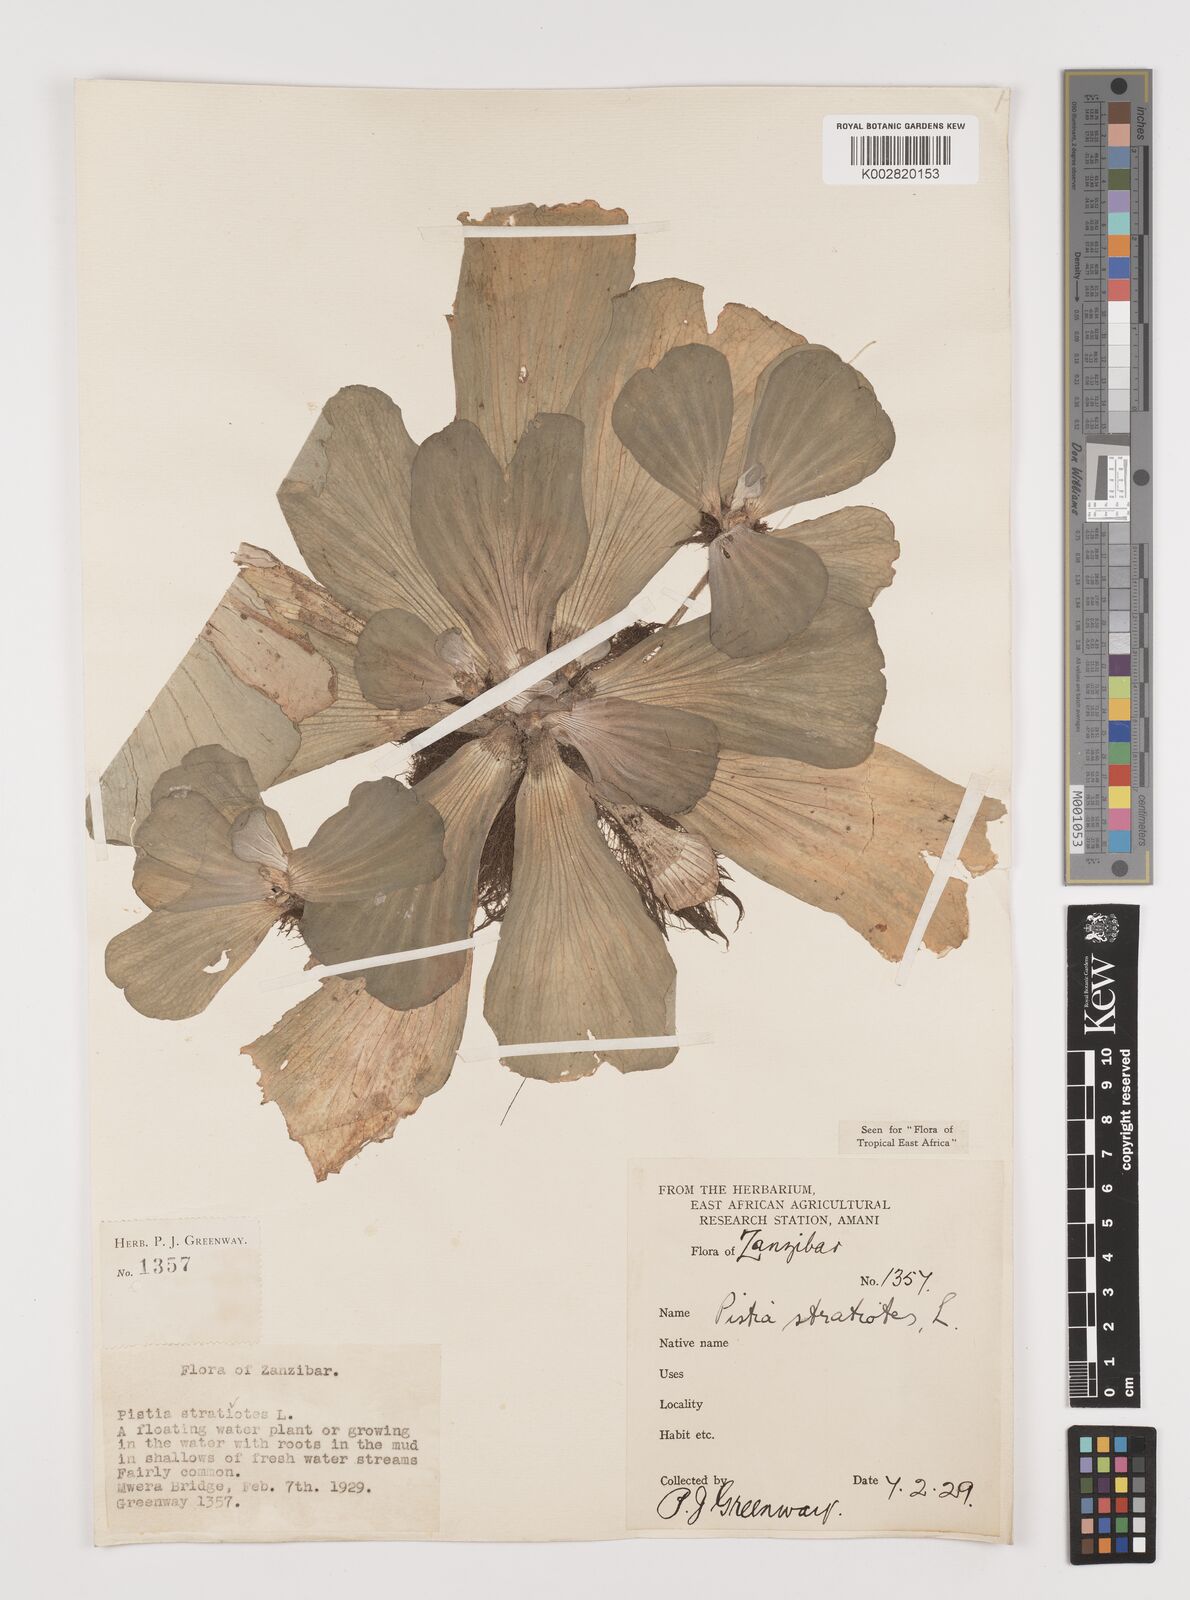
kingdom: Plantae
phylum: Tracheophyta
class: Liliopsida
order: Alismatales
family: Araceae
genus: Pistia
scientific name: Pistia stratiotes
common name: Water lettuce
